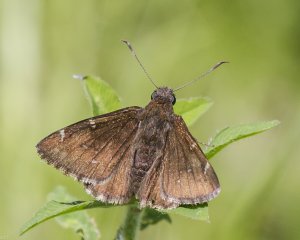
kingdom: Animalia
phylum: Arthropoda
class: Insecta
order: Lepidoptera
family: Hesperiidae
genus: Autochton
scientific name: Autochton
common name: Northern Cloudywing
